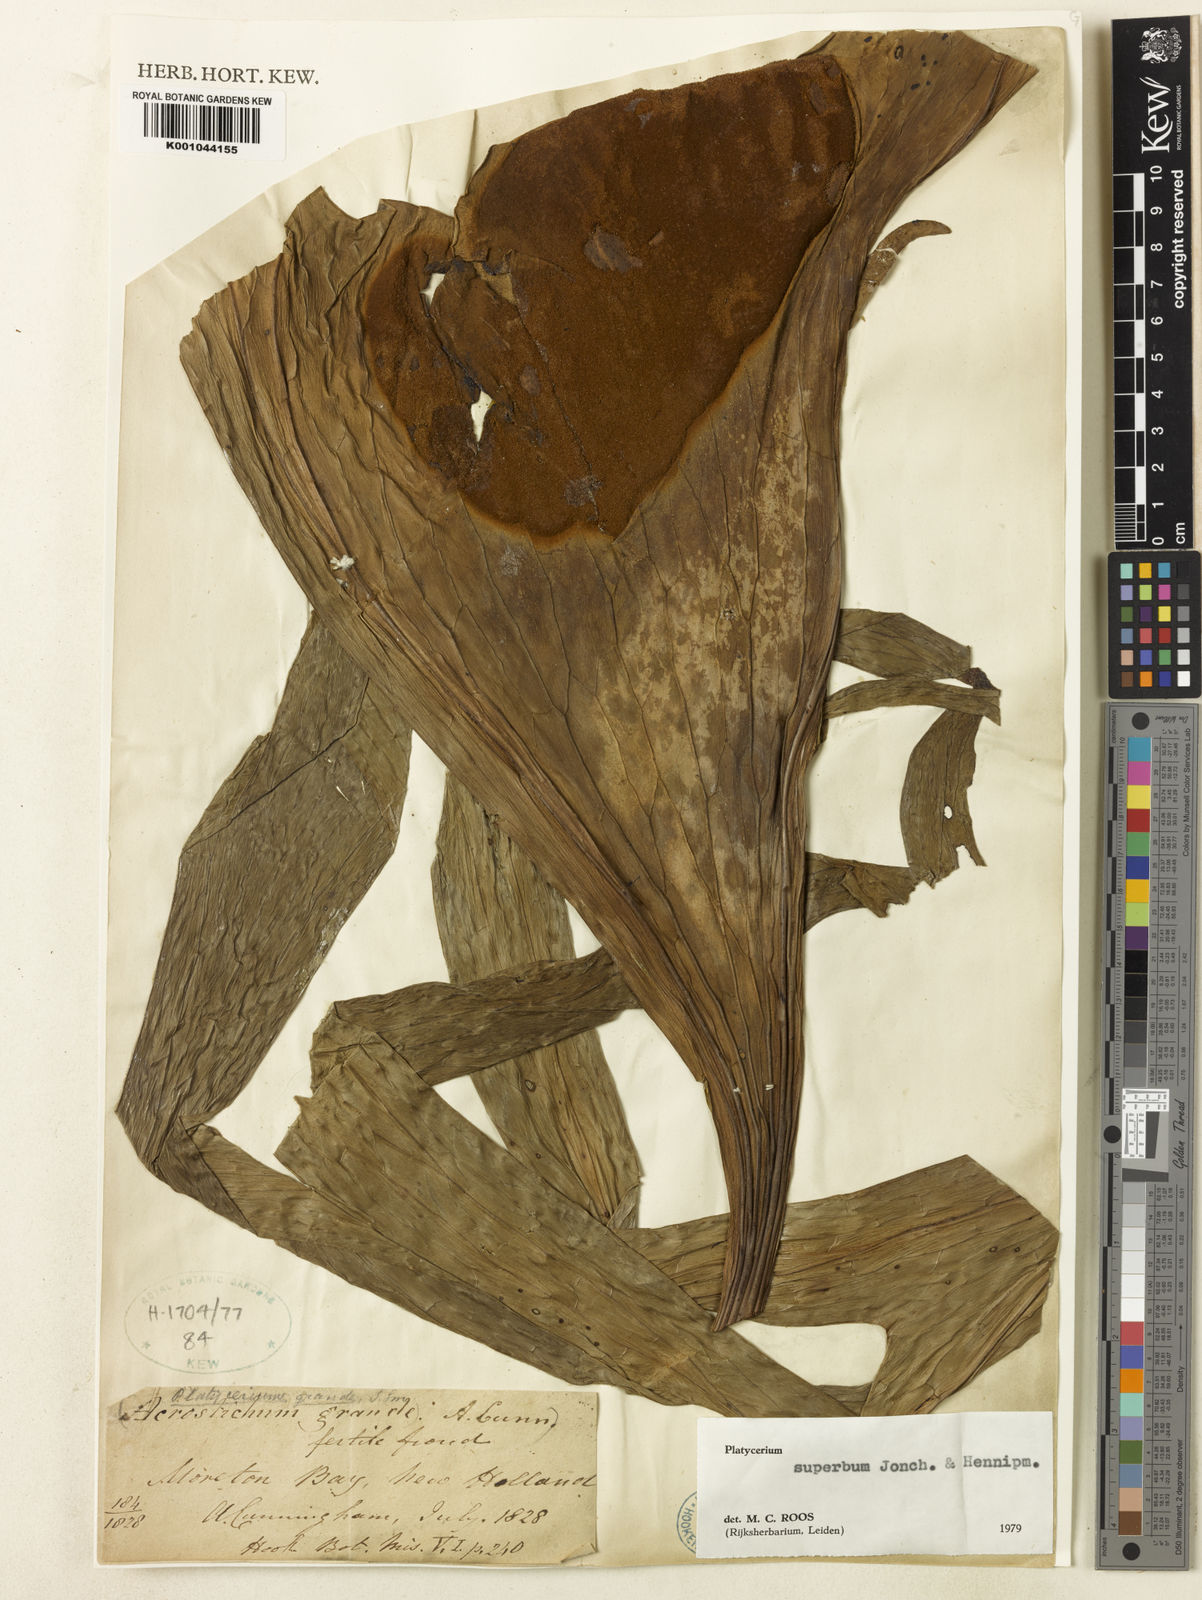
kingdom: Plantae
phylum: Tracheophyta
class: Polypodiopsida
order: Polypodiales
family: Polypodiaceae
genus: Platycerium
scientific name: Platycerium superbum
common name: Staghorn fern
